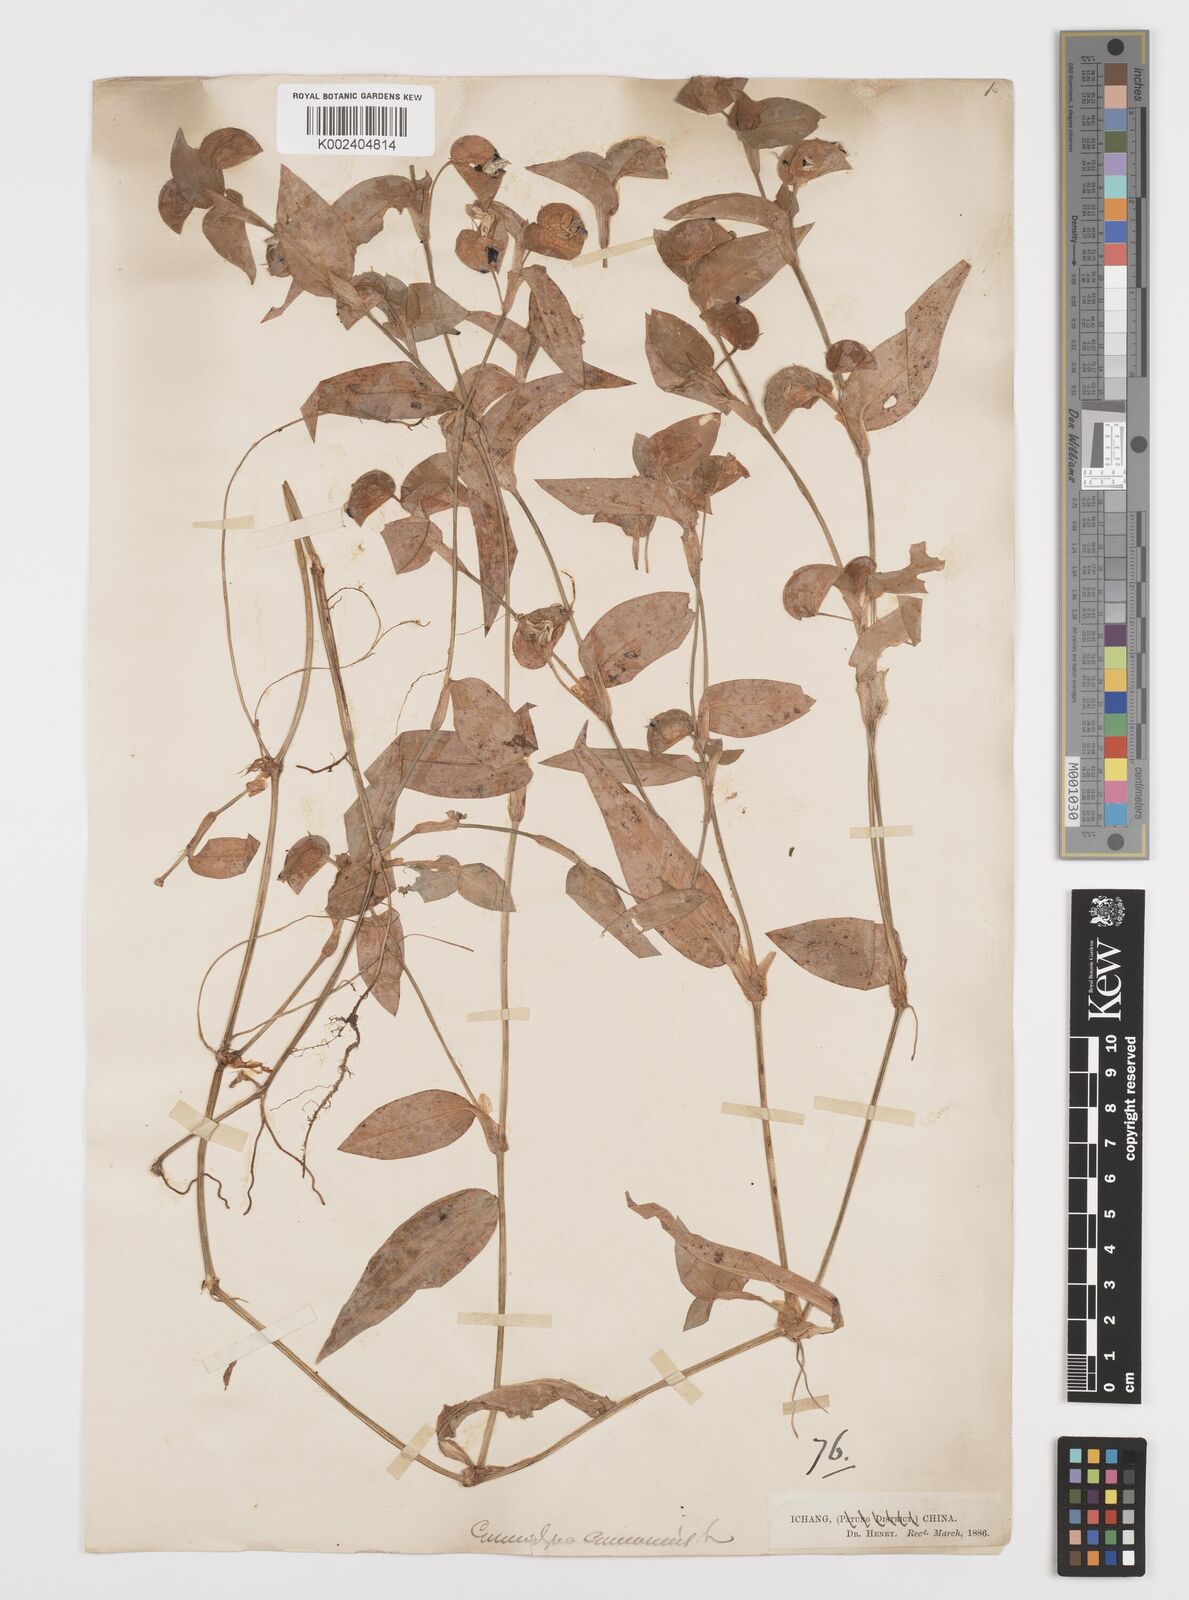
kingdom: Plantae
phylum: Tracheophyta
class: Liliopsida
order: Commelinales
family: Commelinaceae
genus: Commelina
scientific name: Commelina communis
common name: Asiatic dayflower
